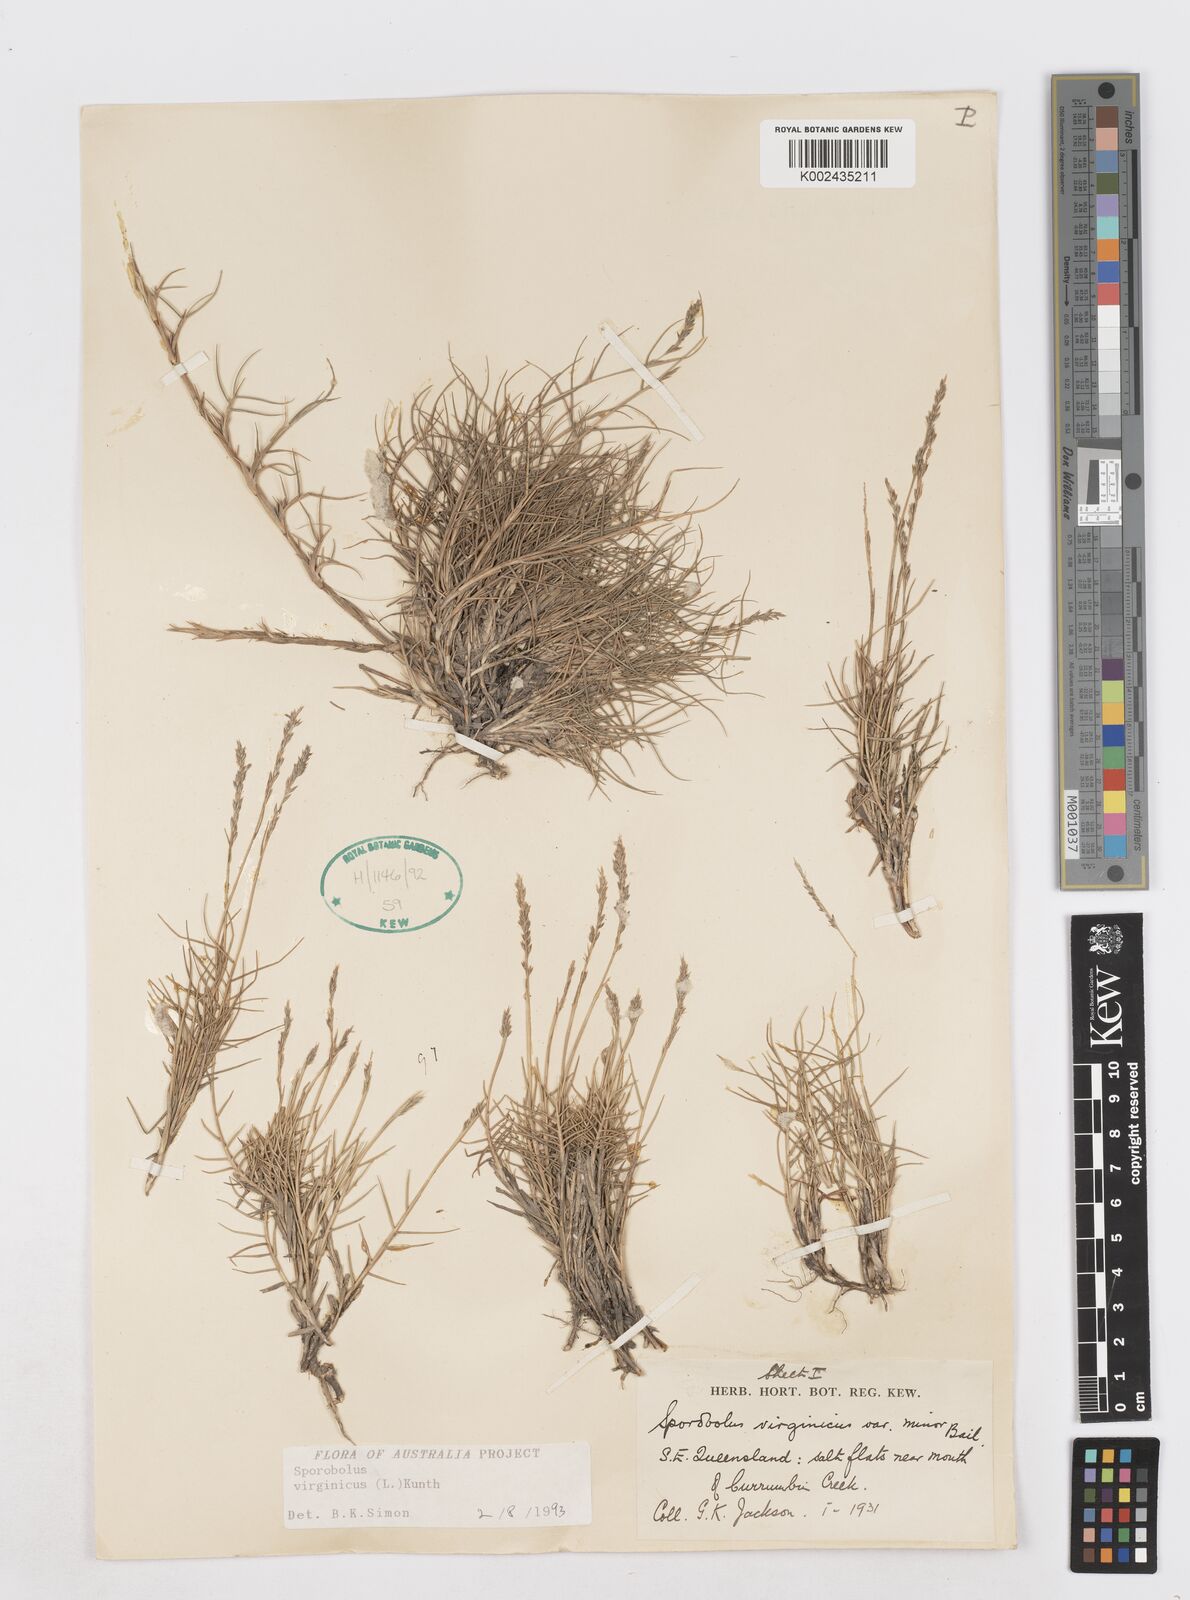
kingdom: Plantae
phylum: Tracheophyta
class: Liliopsida
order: Poales
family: Poaceae
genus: Sporobolus
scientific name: Sporobolus virginicus
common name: Beach dropseed
